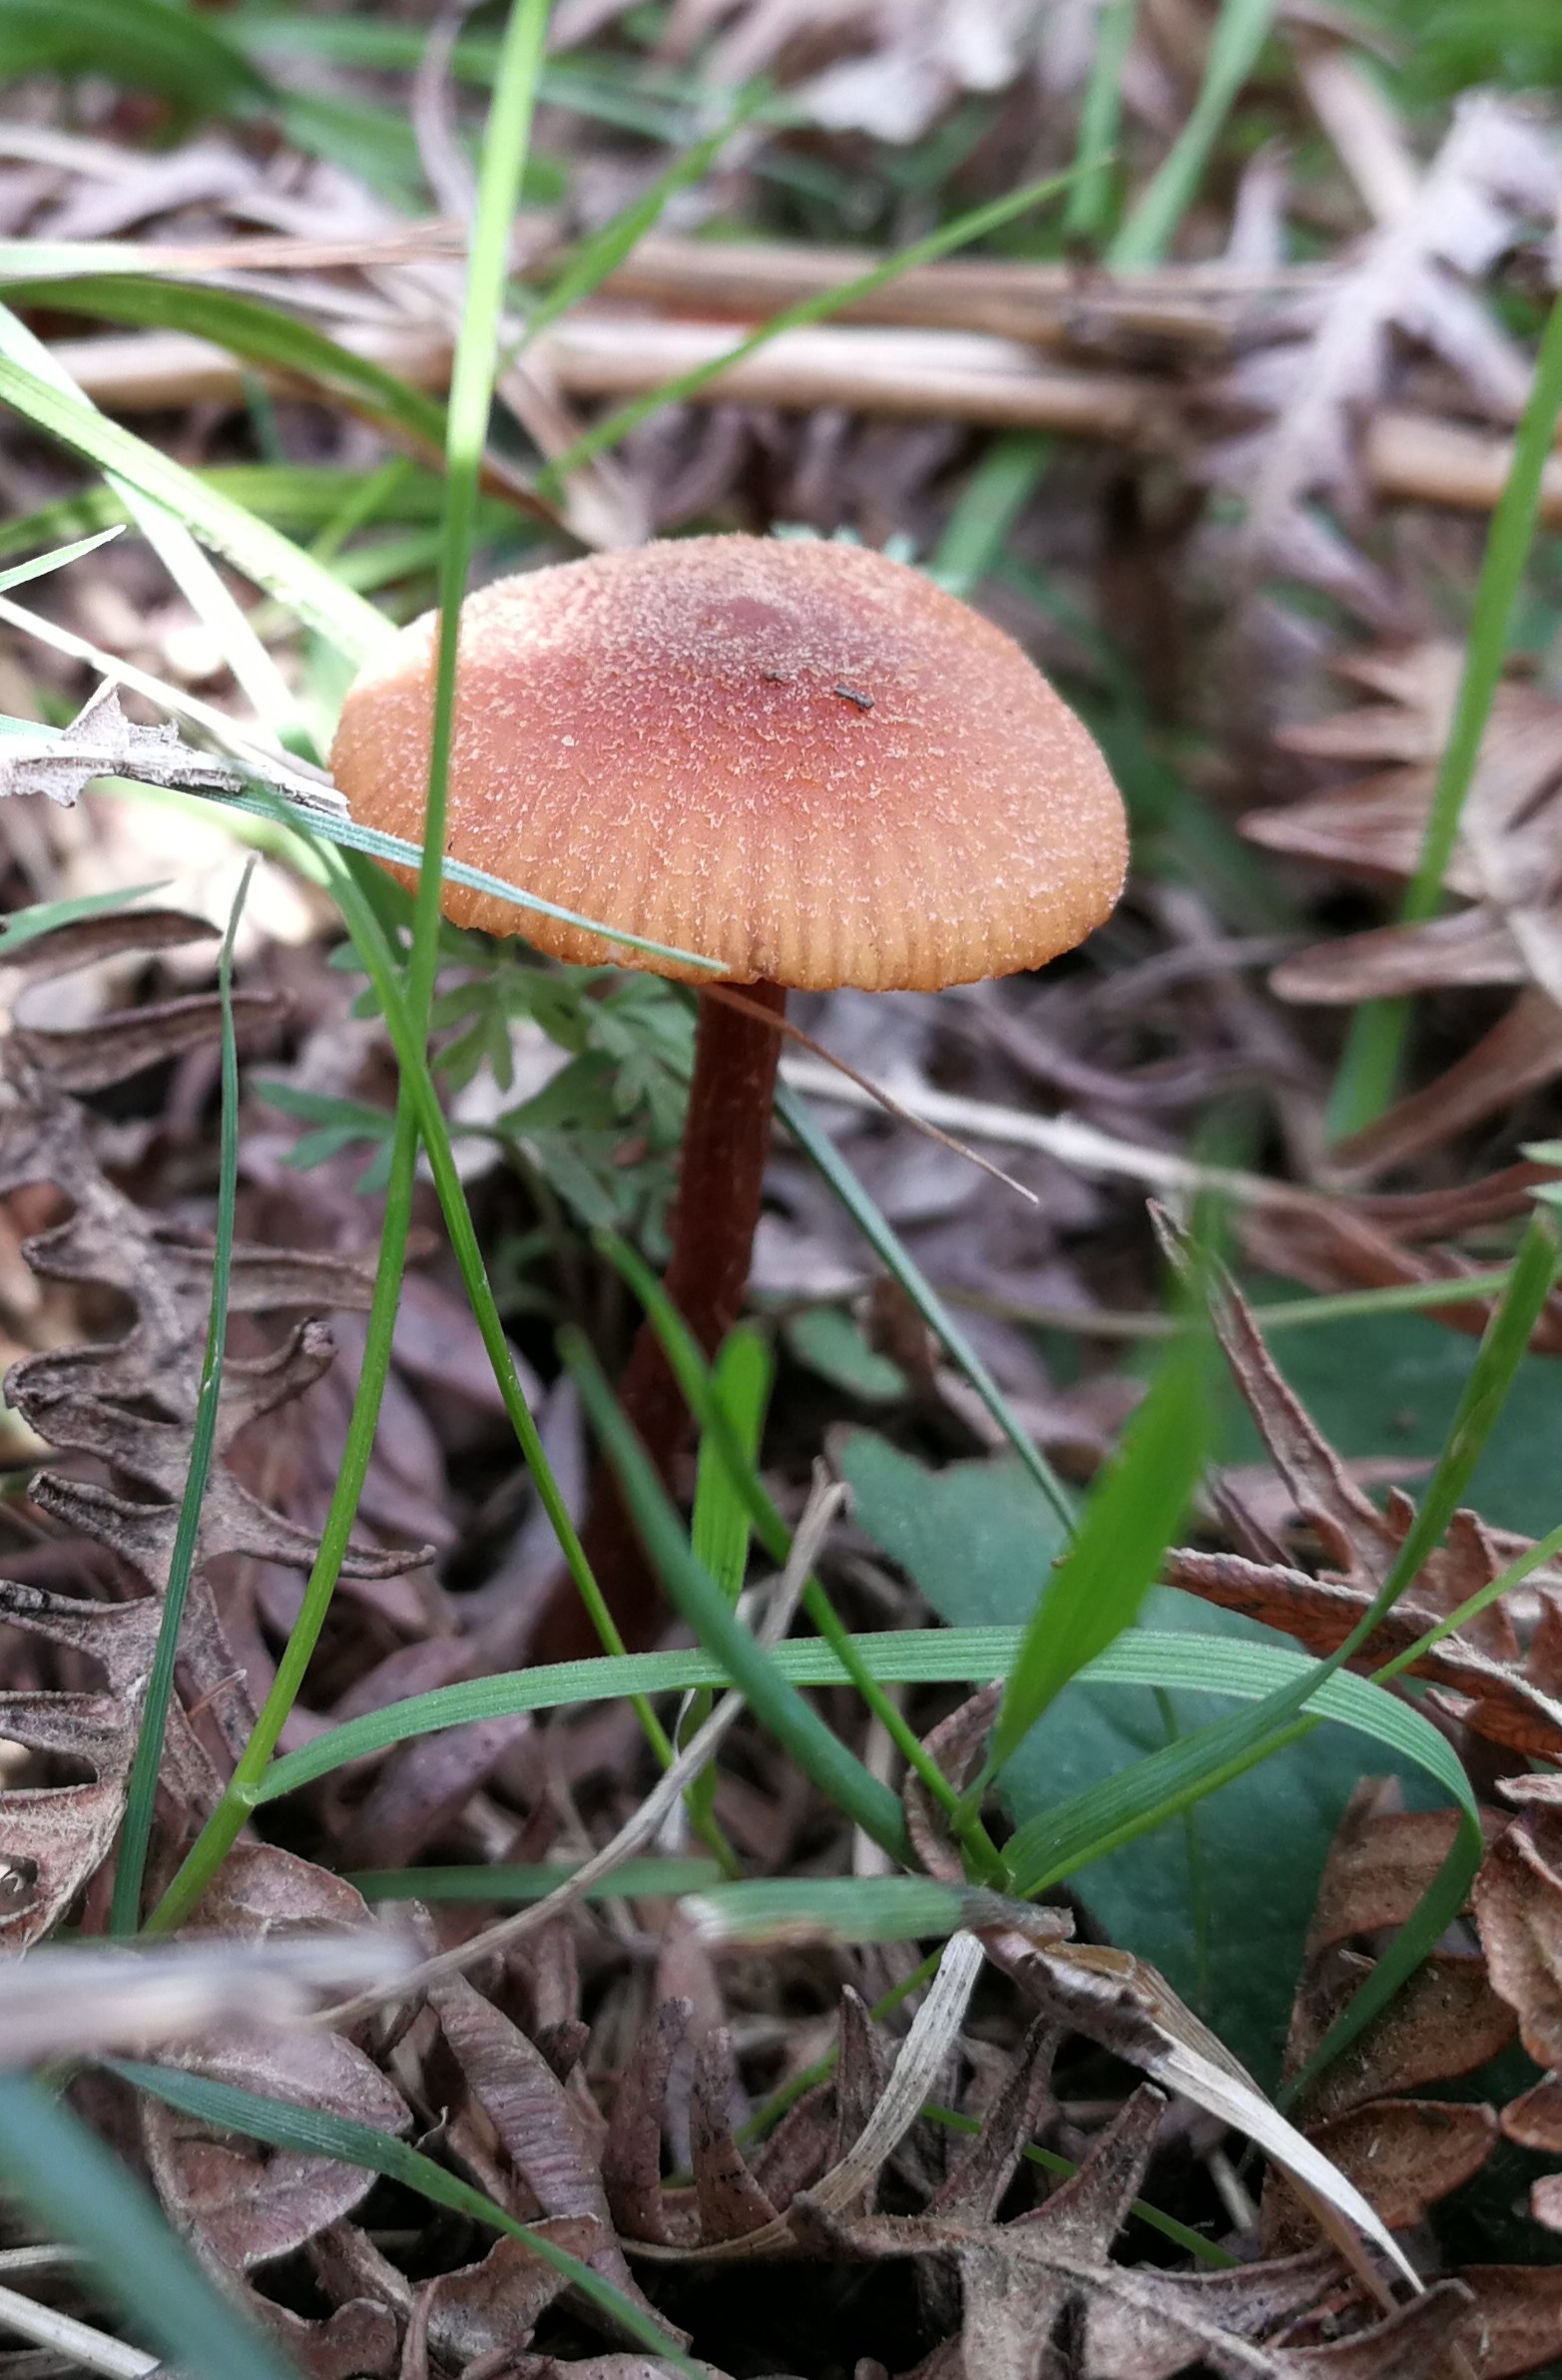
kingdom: Fungi
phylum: Basidiomycota
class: Agaricomycetes
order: Agaricales
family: Hydnangiaceae
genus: Laccaria
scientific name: Laccaria proxima
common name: stor ametysthat
